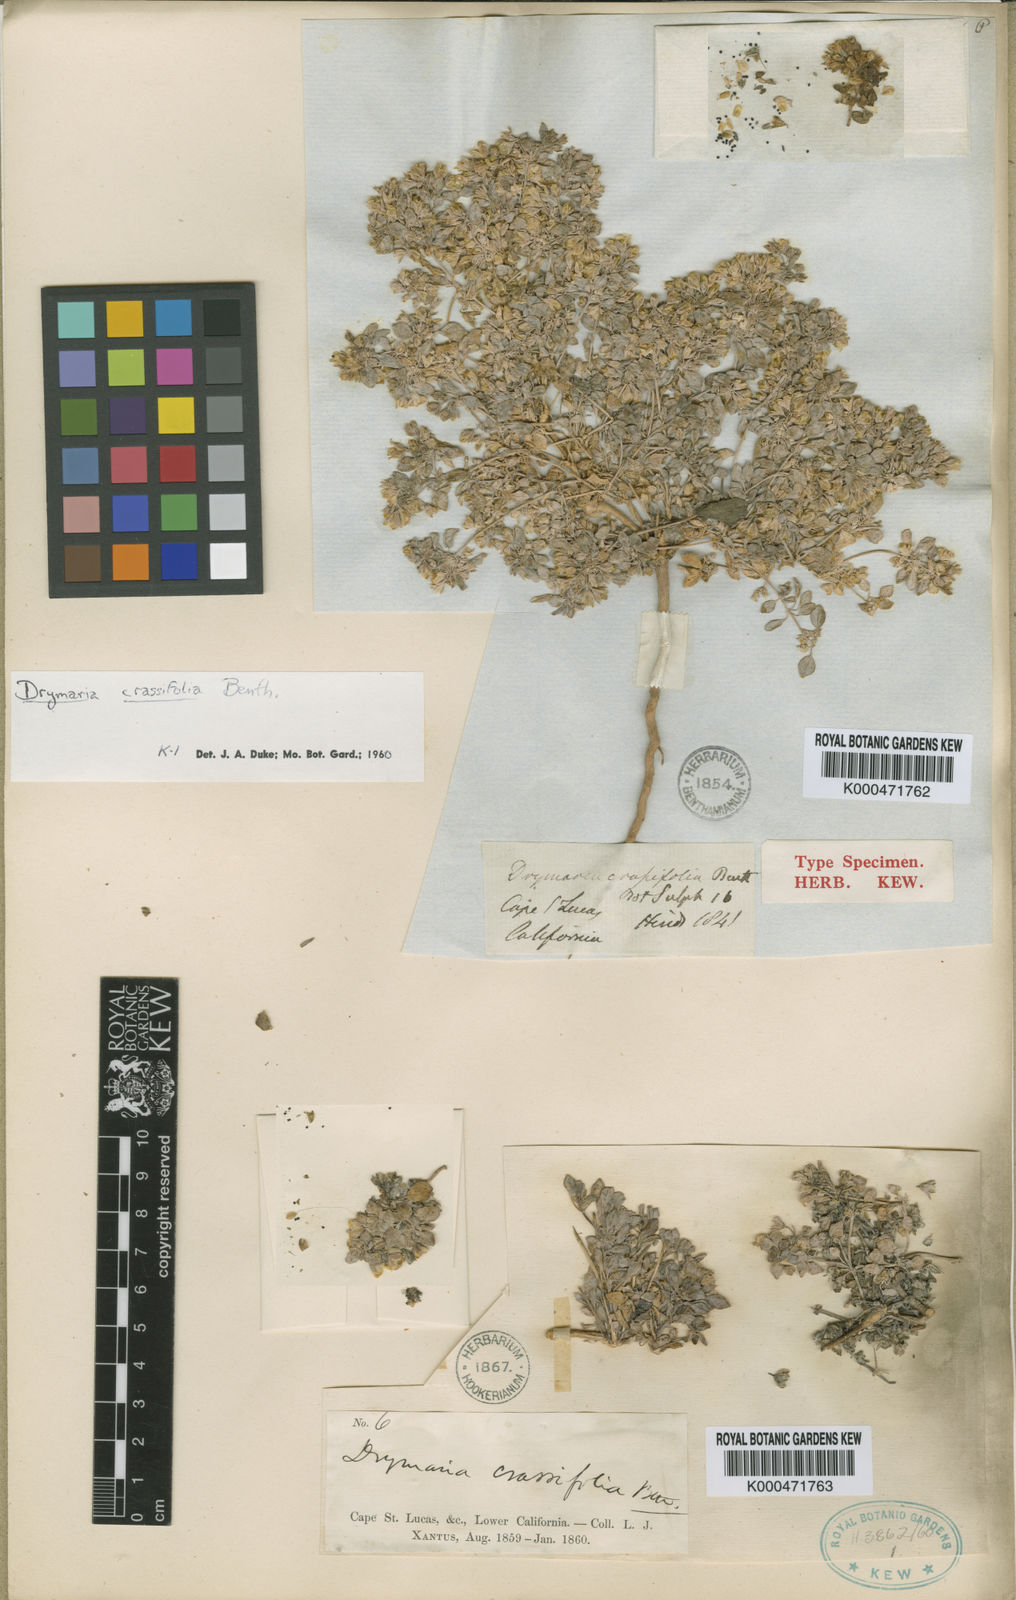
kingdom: Plantae
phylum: Tracheophyta
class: Magnoliopsida
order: Caryophyllales
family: Caryophyllaceae
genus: Drymaria
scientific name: Drymaria holosteoides
